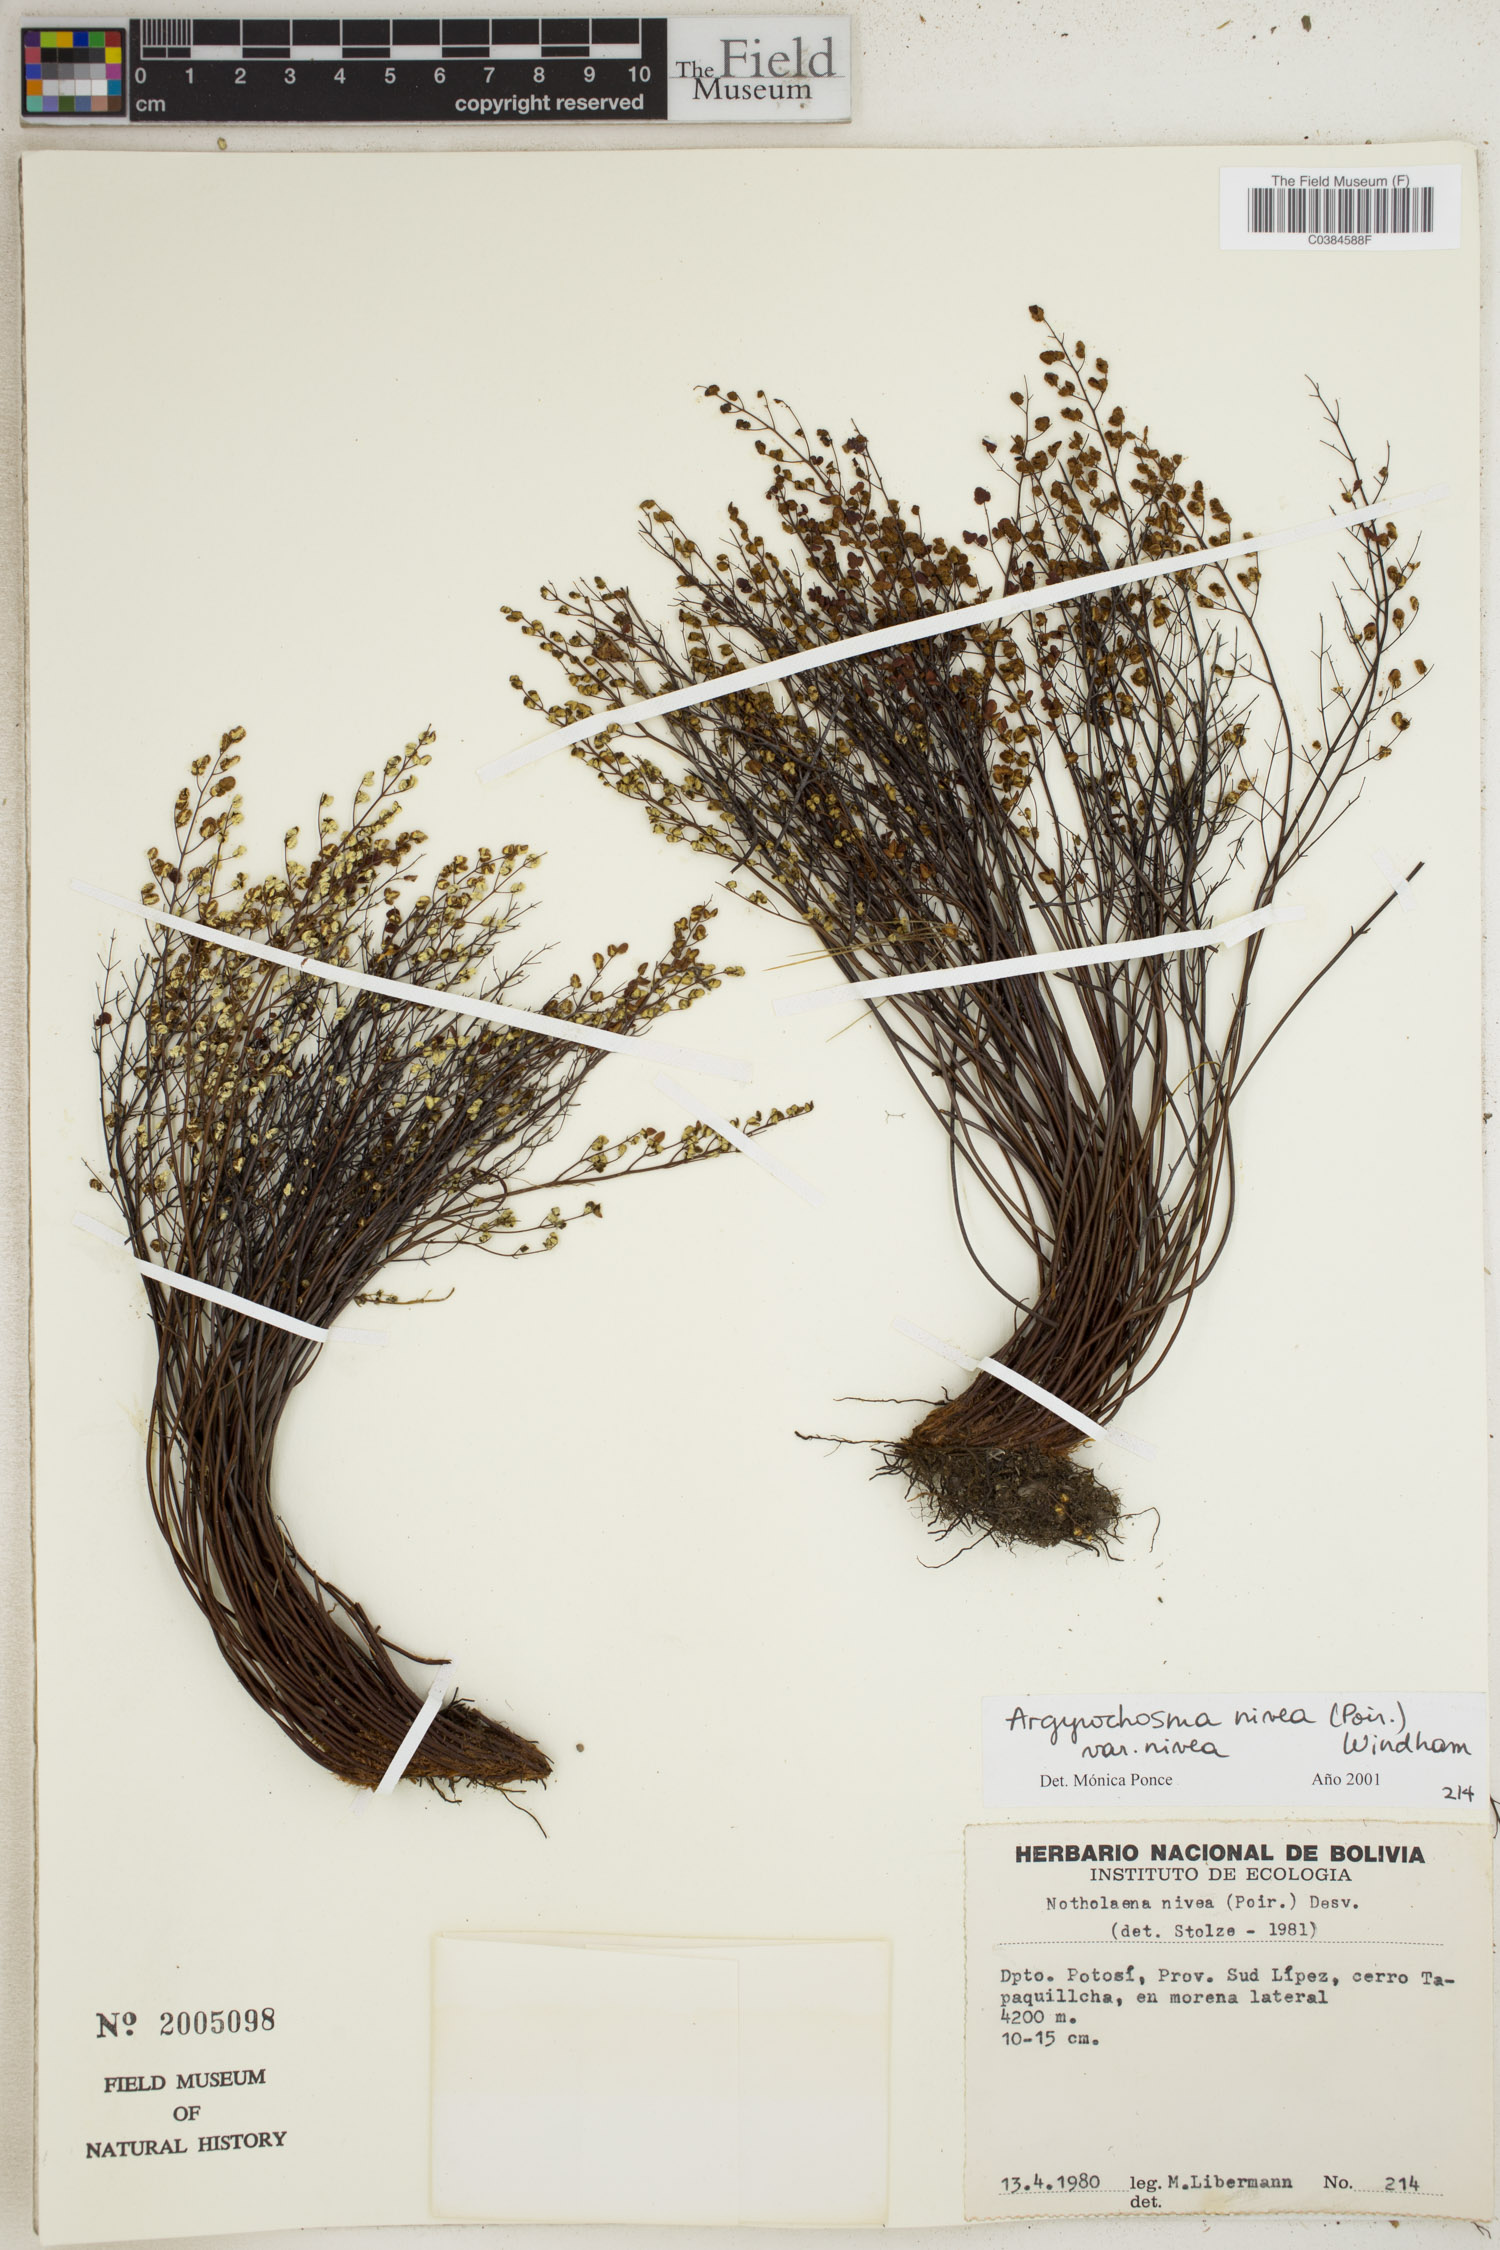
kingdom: Plantae
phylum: Tracheophyta
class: Polypodiopsida
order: Polypodiales
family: Pteridaceae
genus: Argyrochosma
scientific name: Argyrochosma nivea
